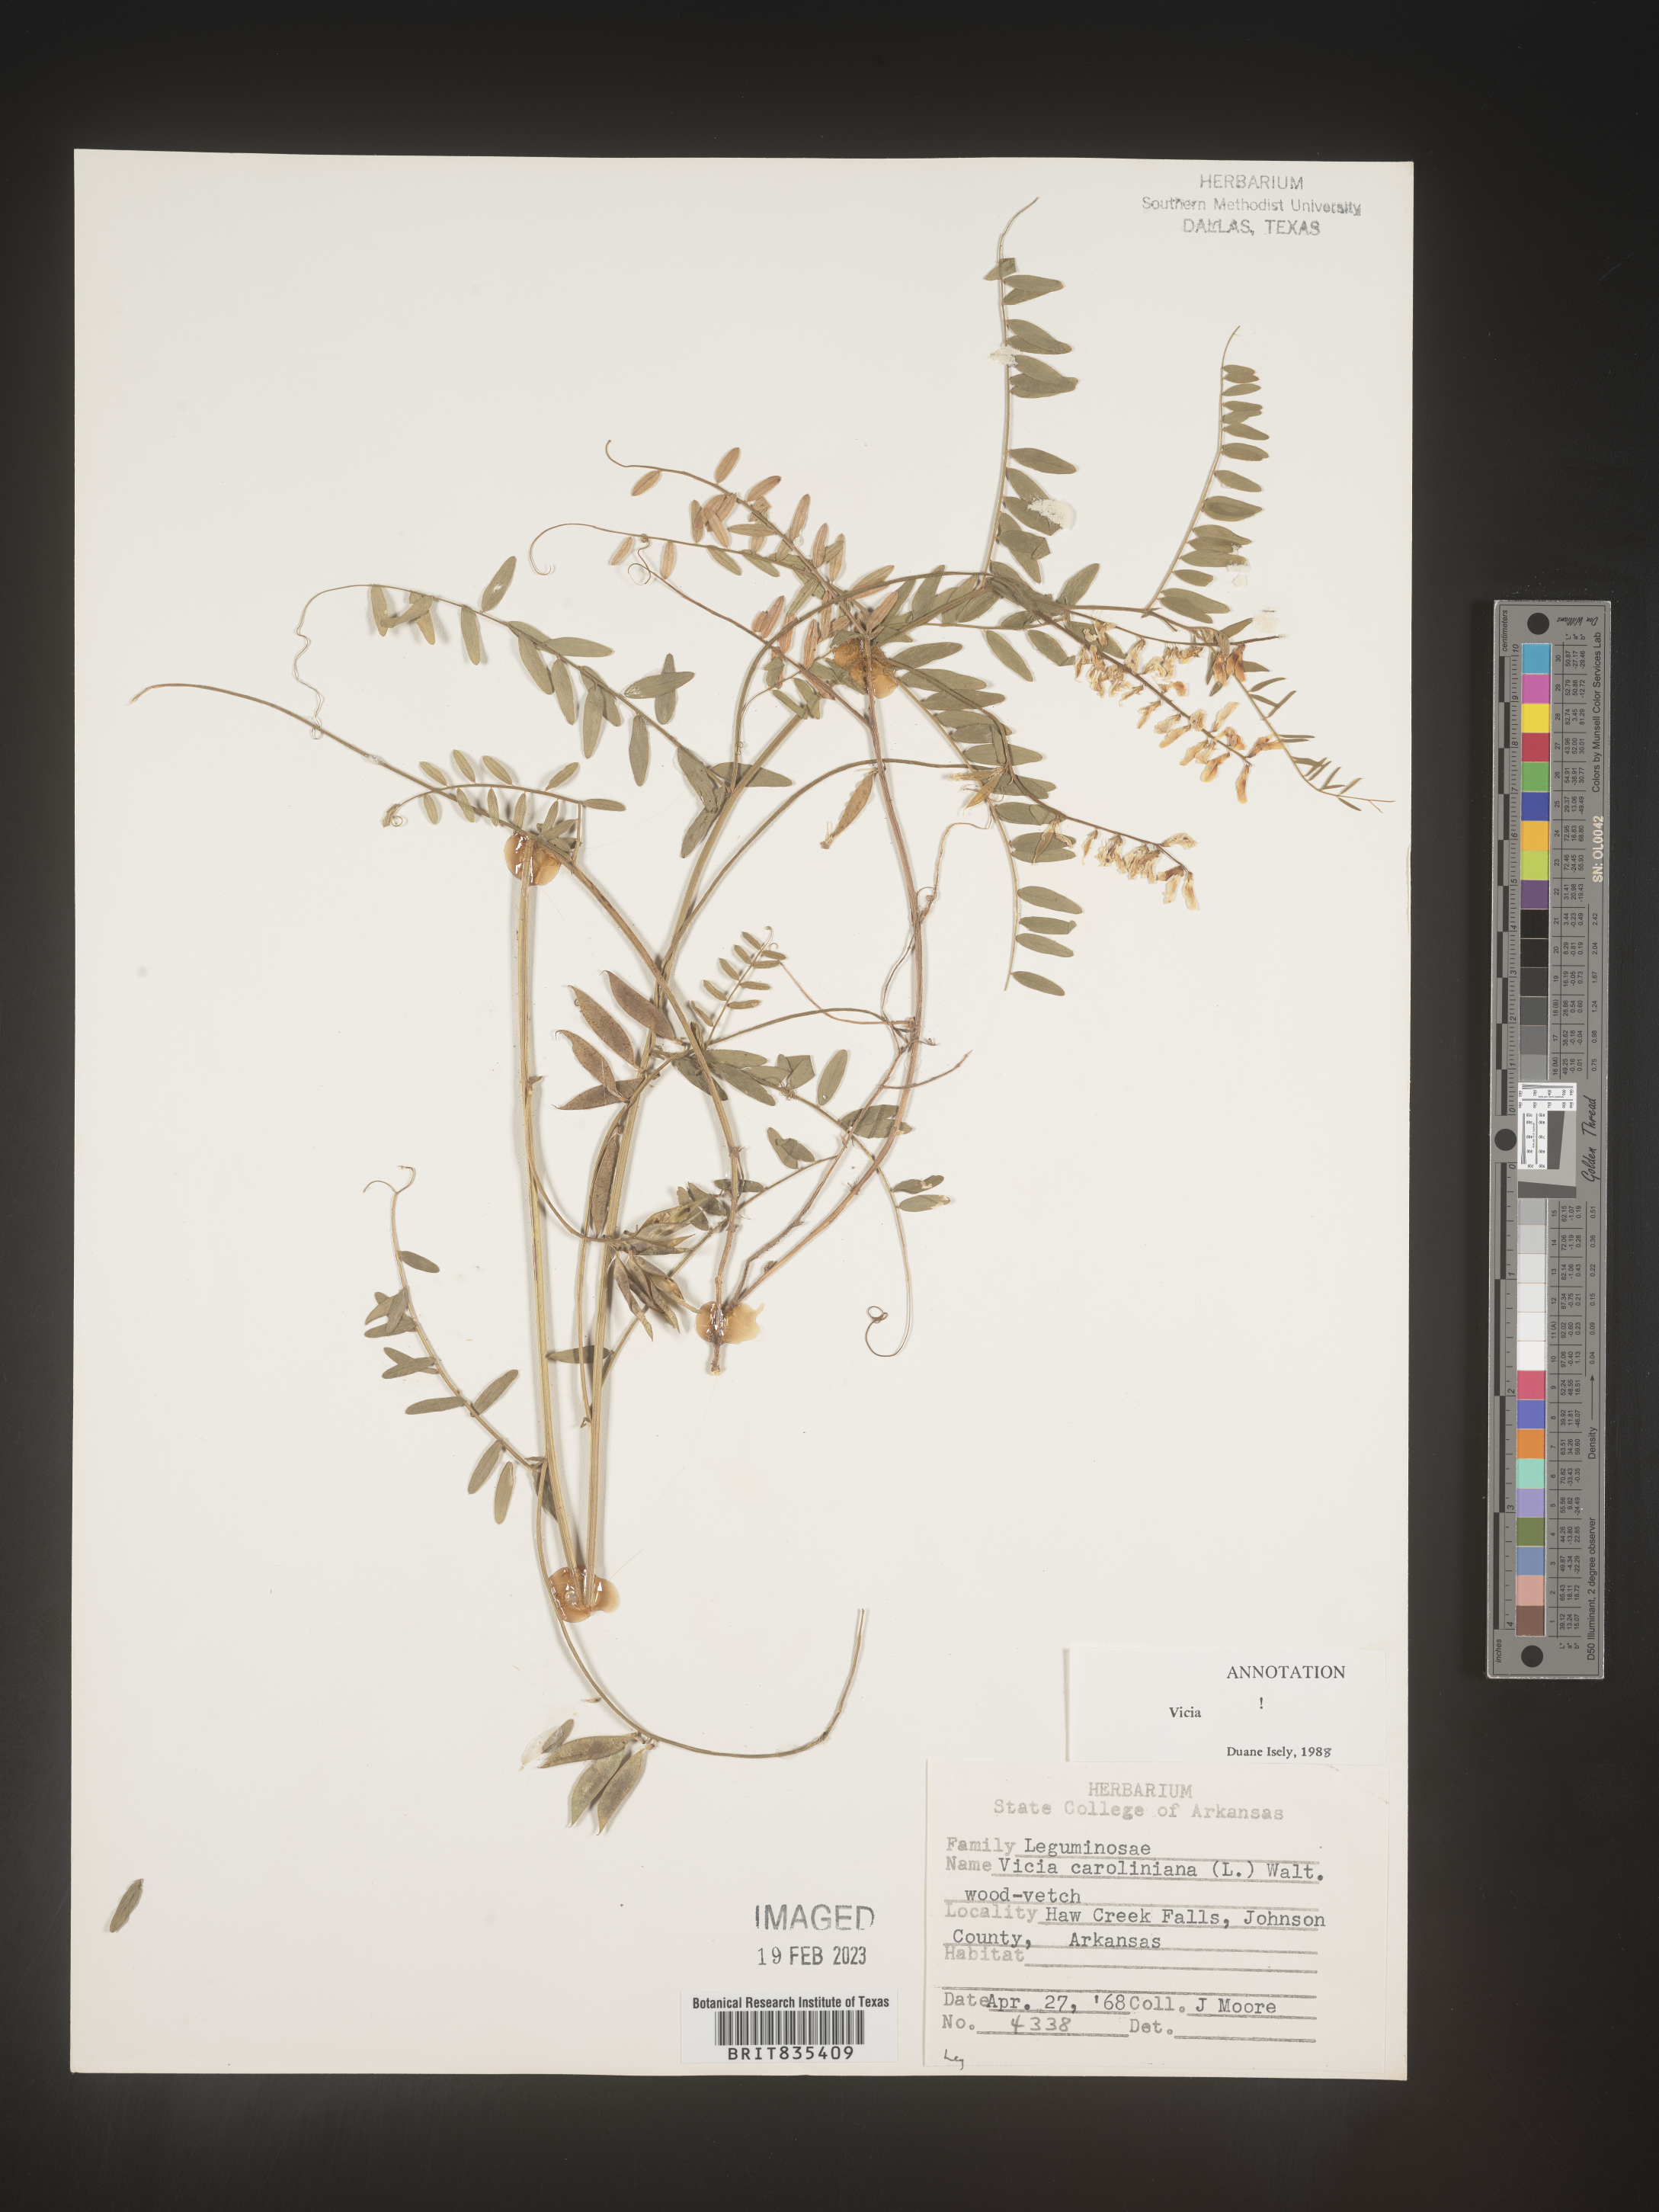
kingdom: Plantae
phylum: Tracheophyta
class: Magnoliopsida
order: Fabales
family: Fabaceae
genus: Vicia
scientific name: Vicia caroliniana
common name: Carolina vetch
